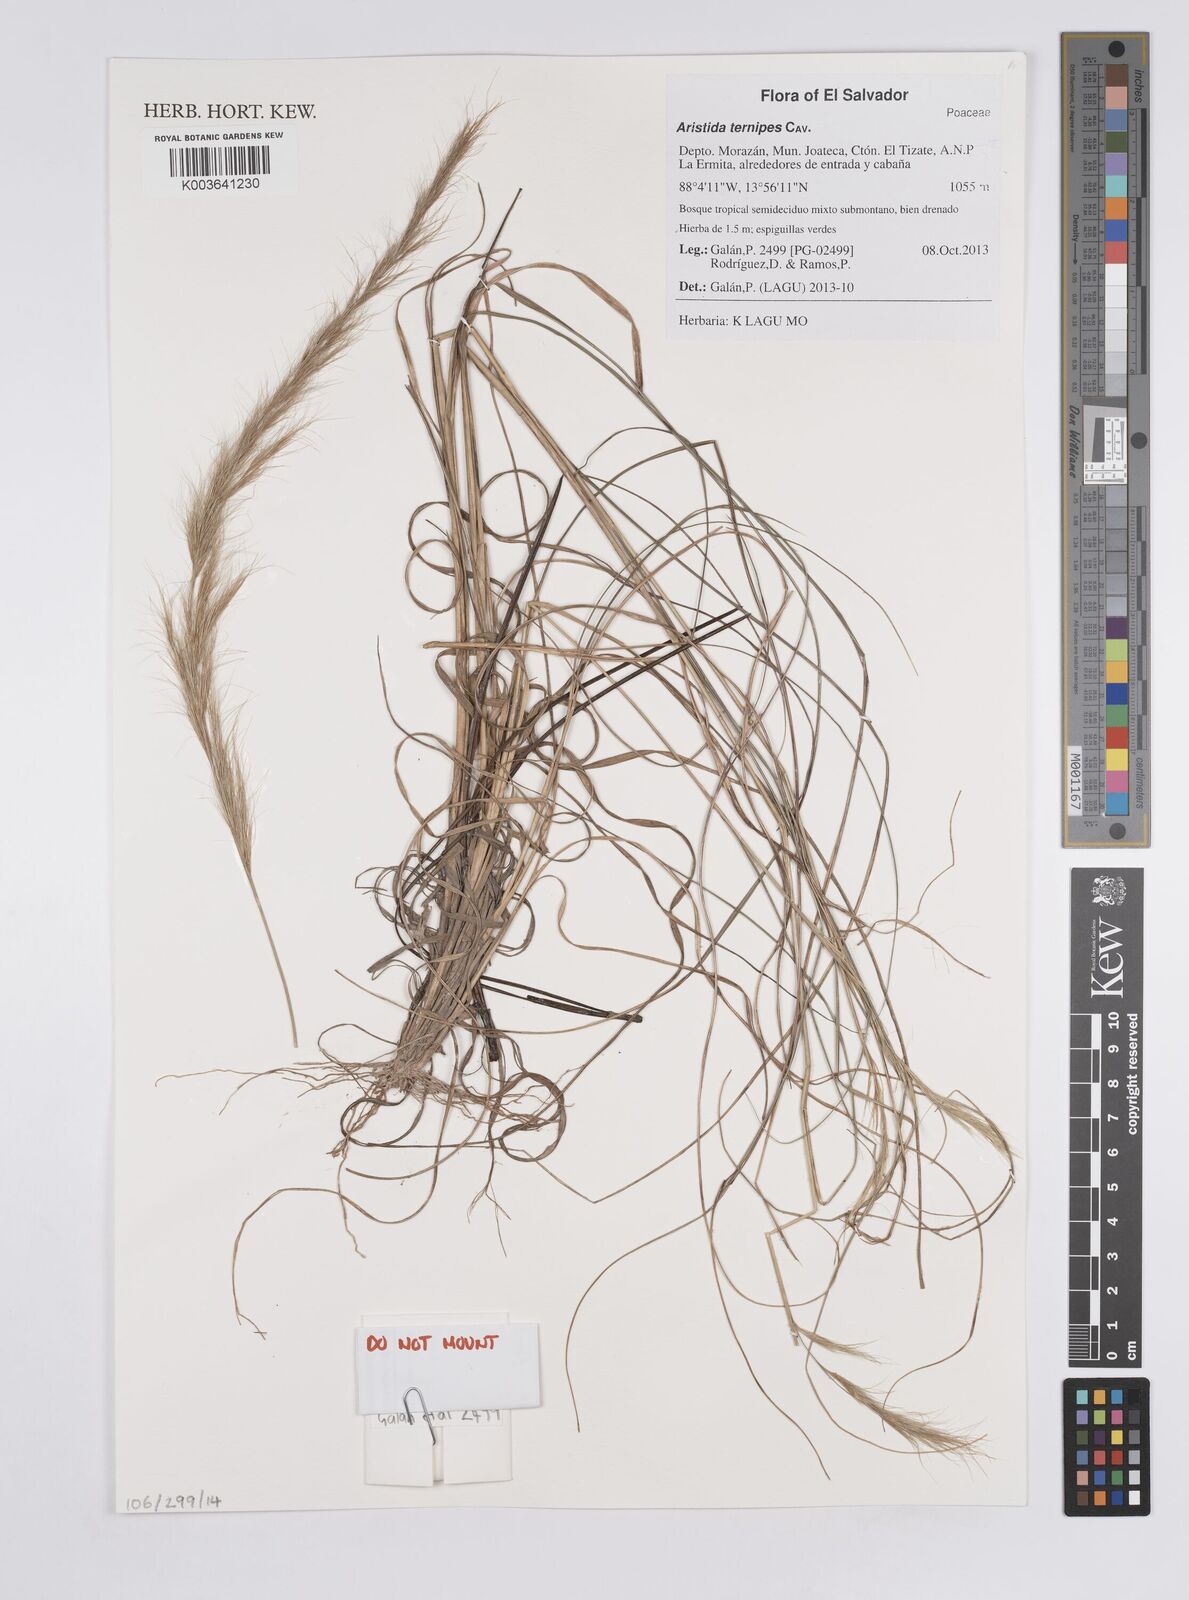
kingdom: Plantae
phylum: Tracheophyta
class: Liliopsida
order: Poales
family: Poaceae
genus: Aristida
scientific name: Aristida
